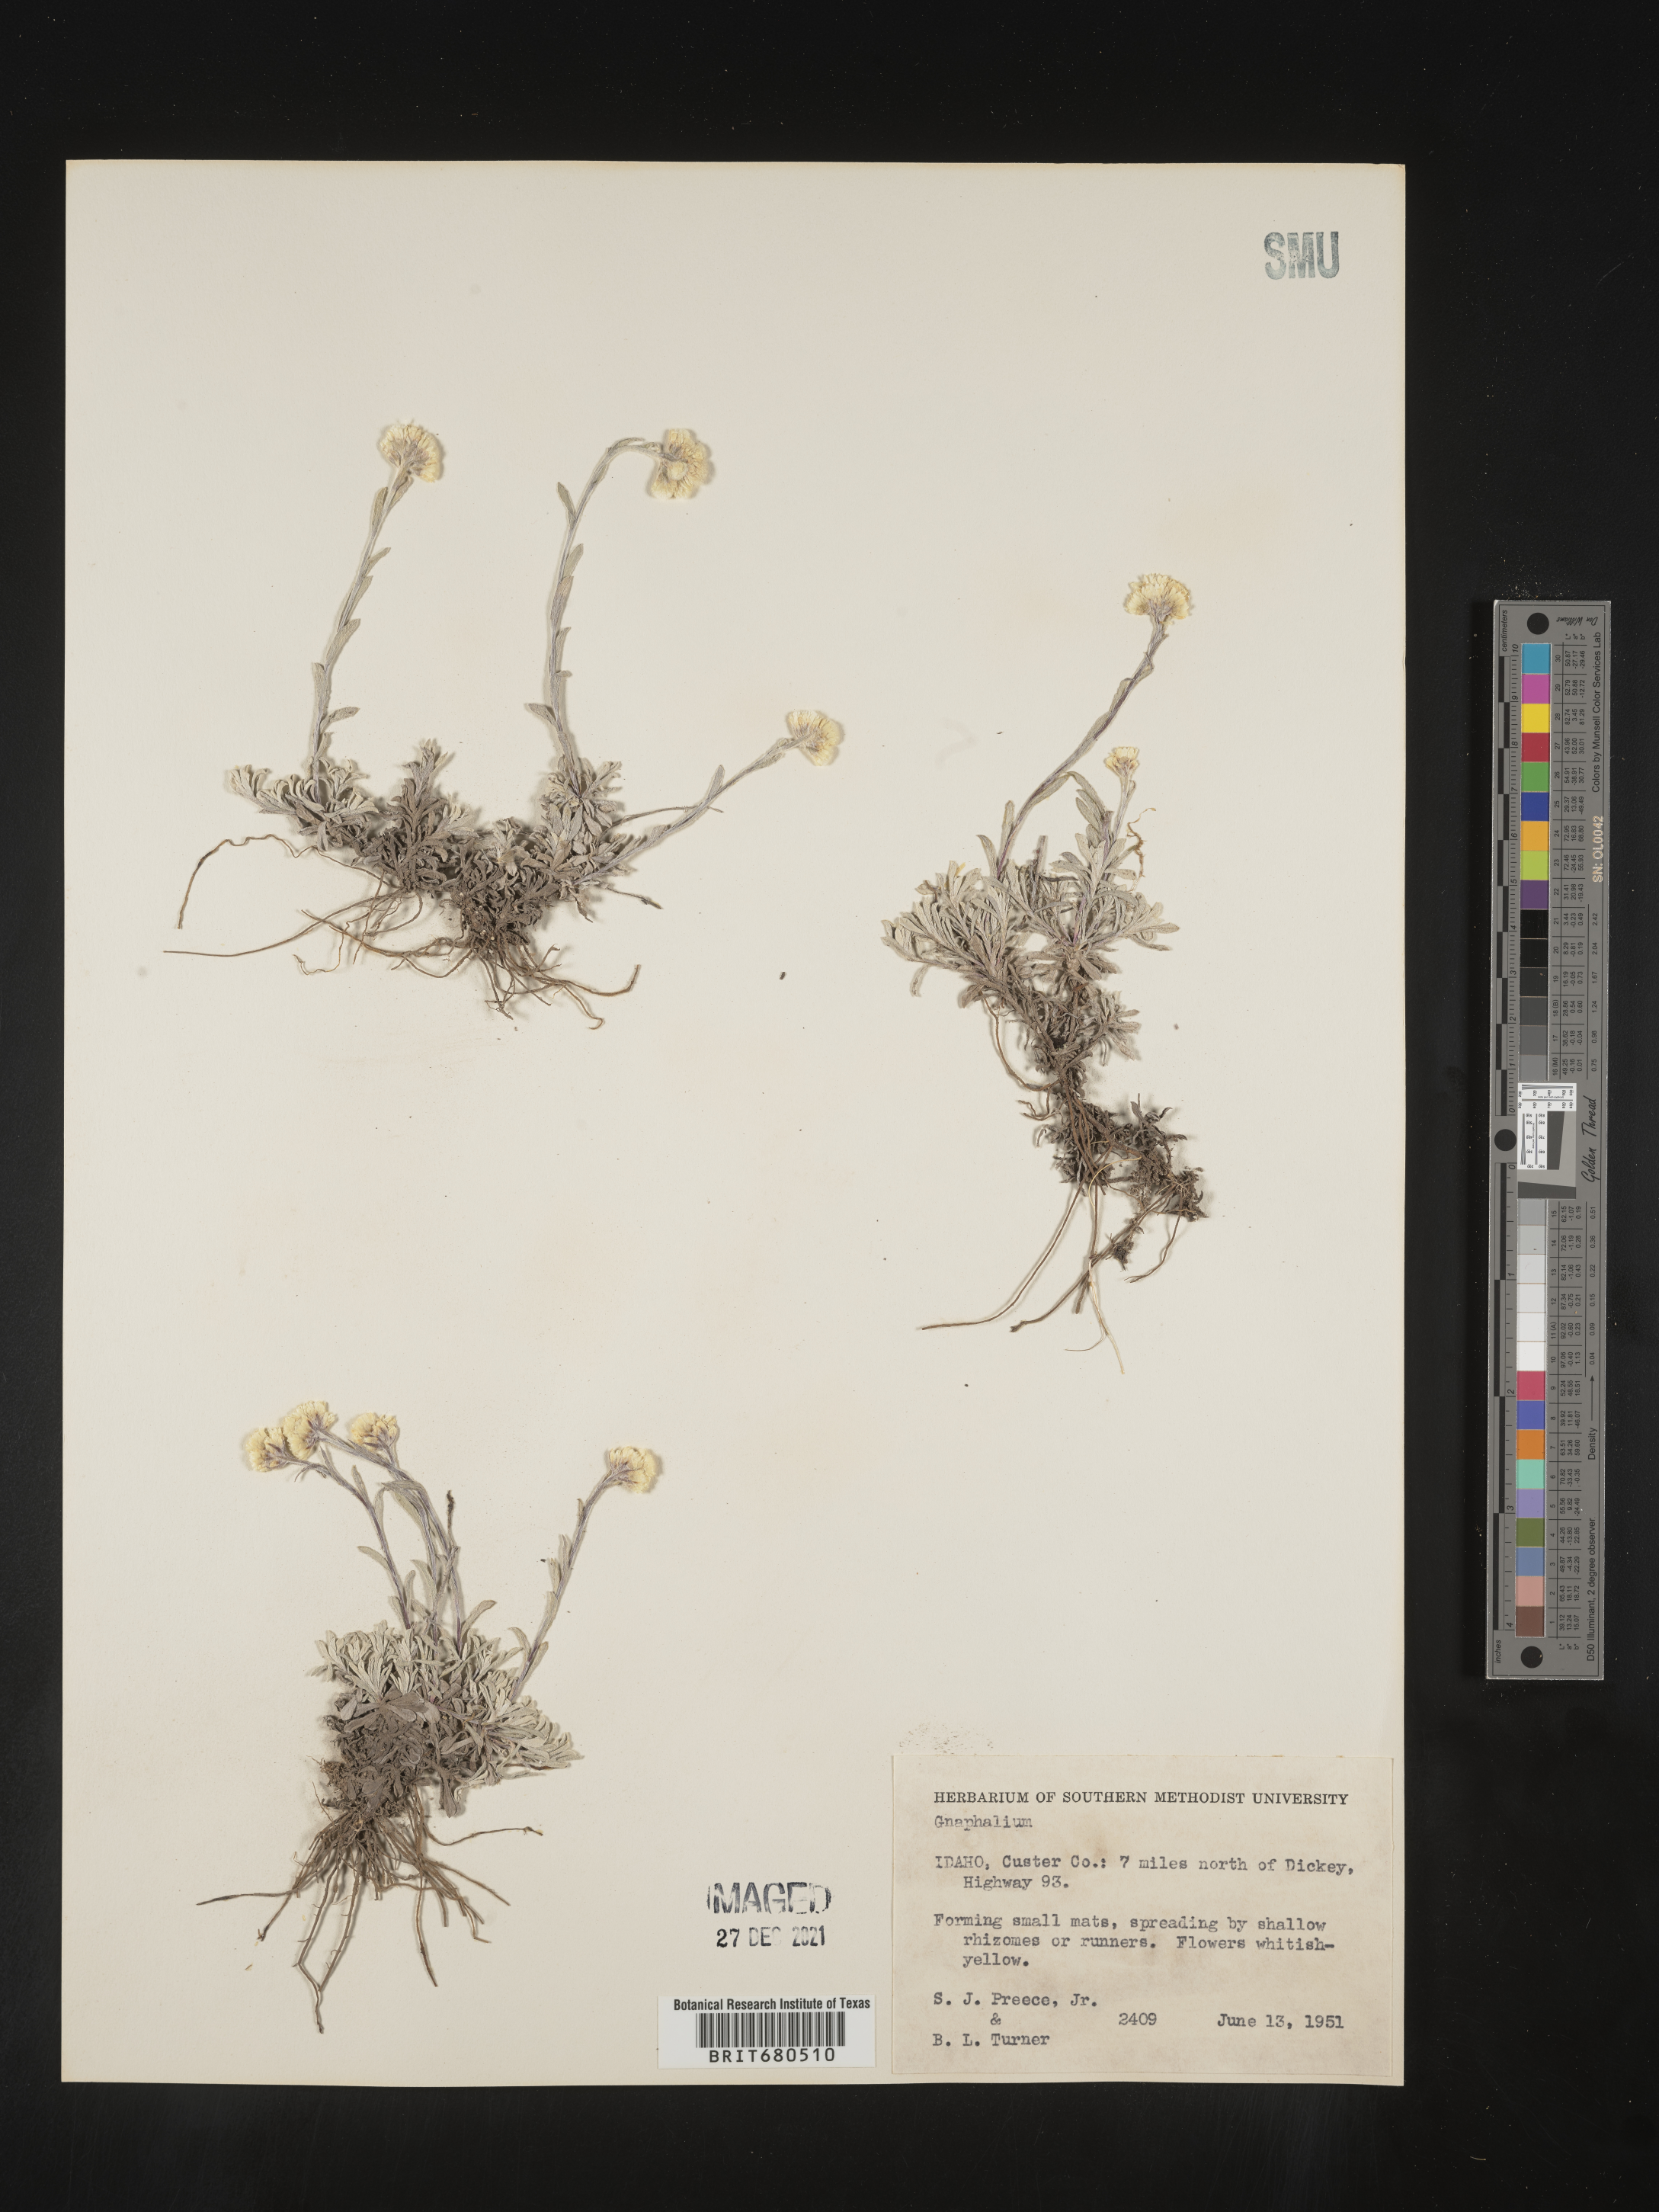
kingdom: Plantae
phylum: Tracheophyta
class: Magnoliopsida
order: Asterales
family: Asteraceae
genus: Antennaria
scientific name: Antennaria rosea
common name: Rosy pussytoes
